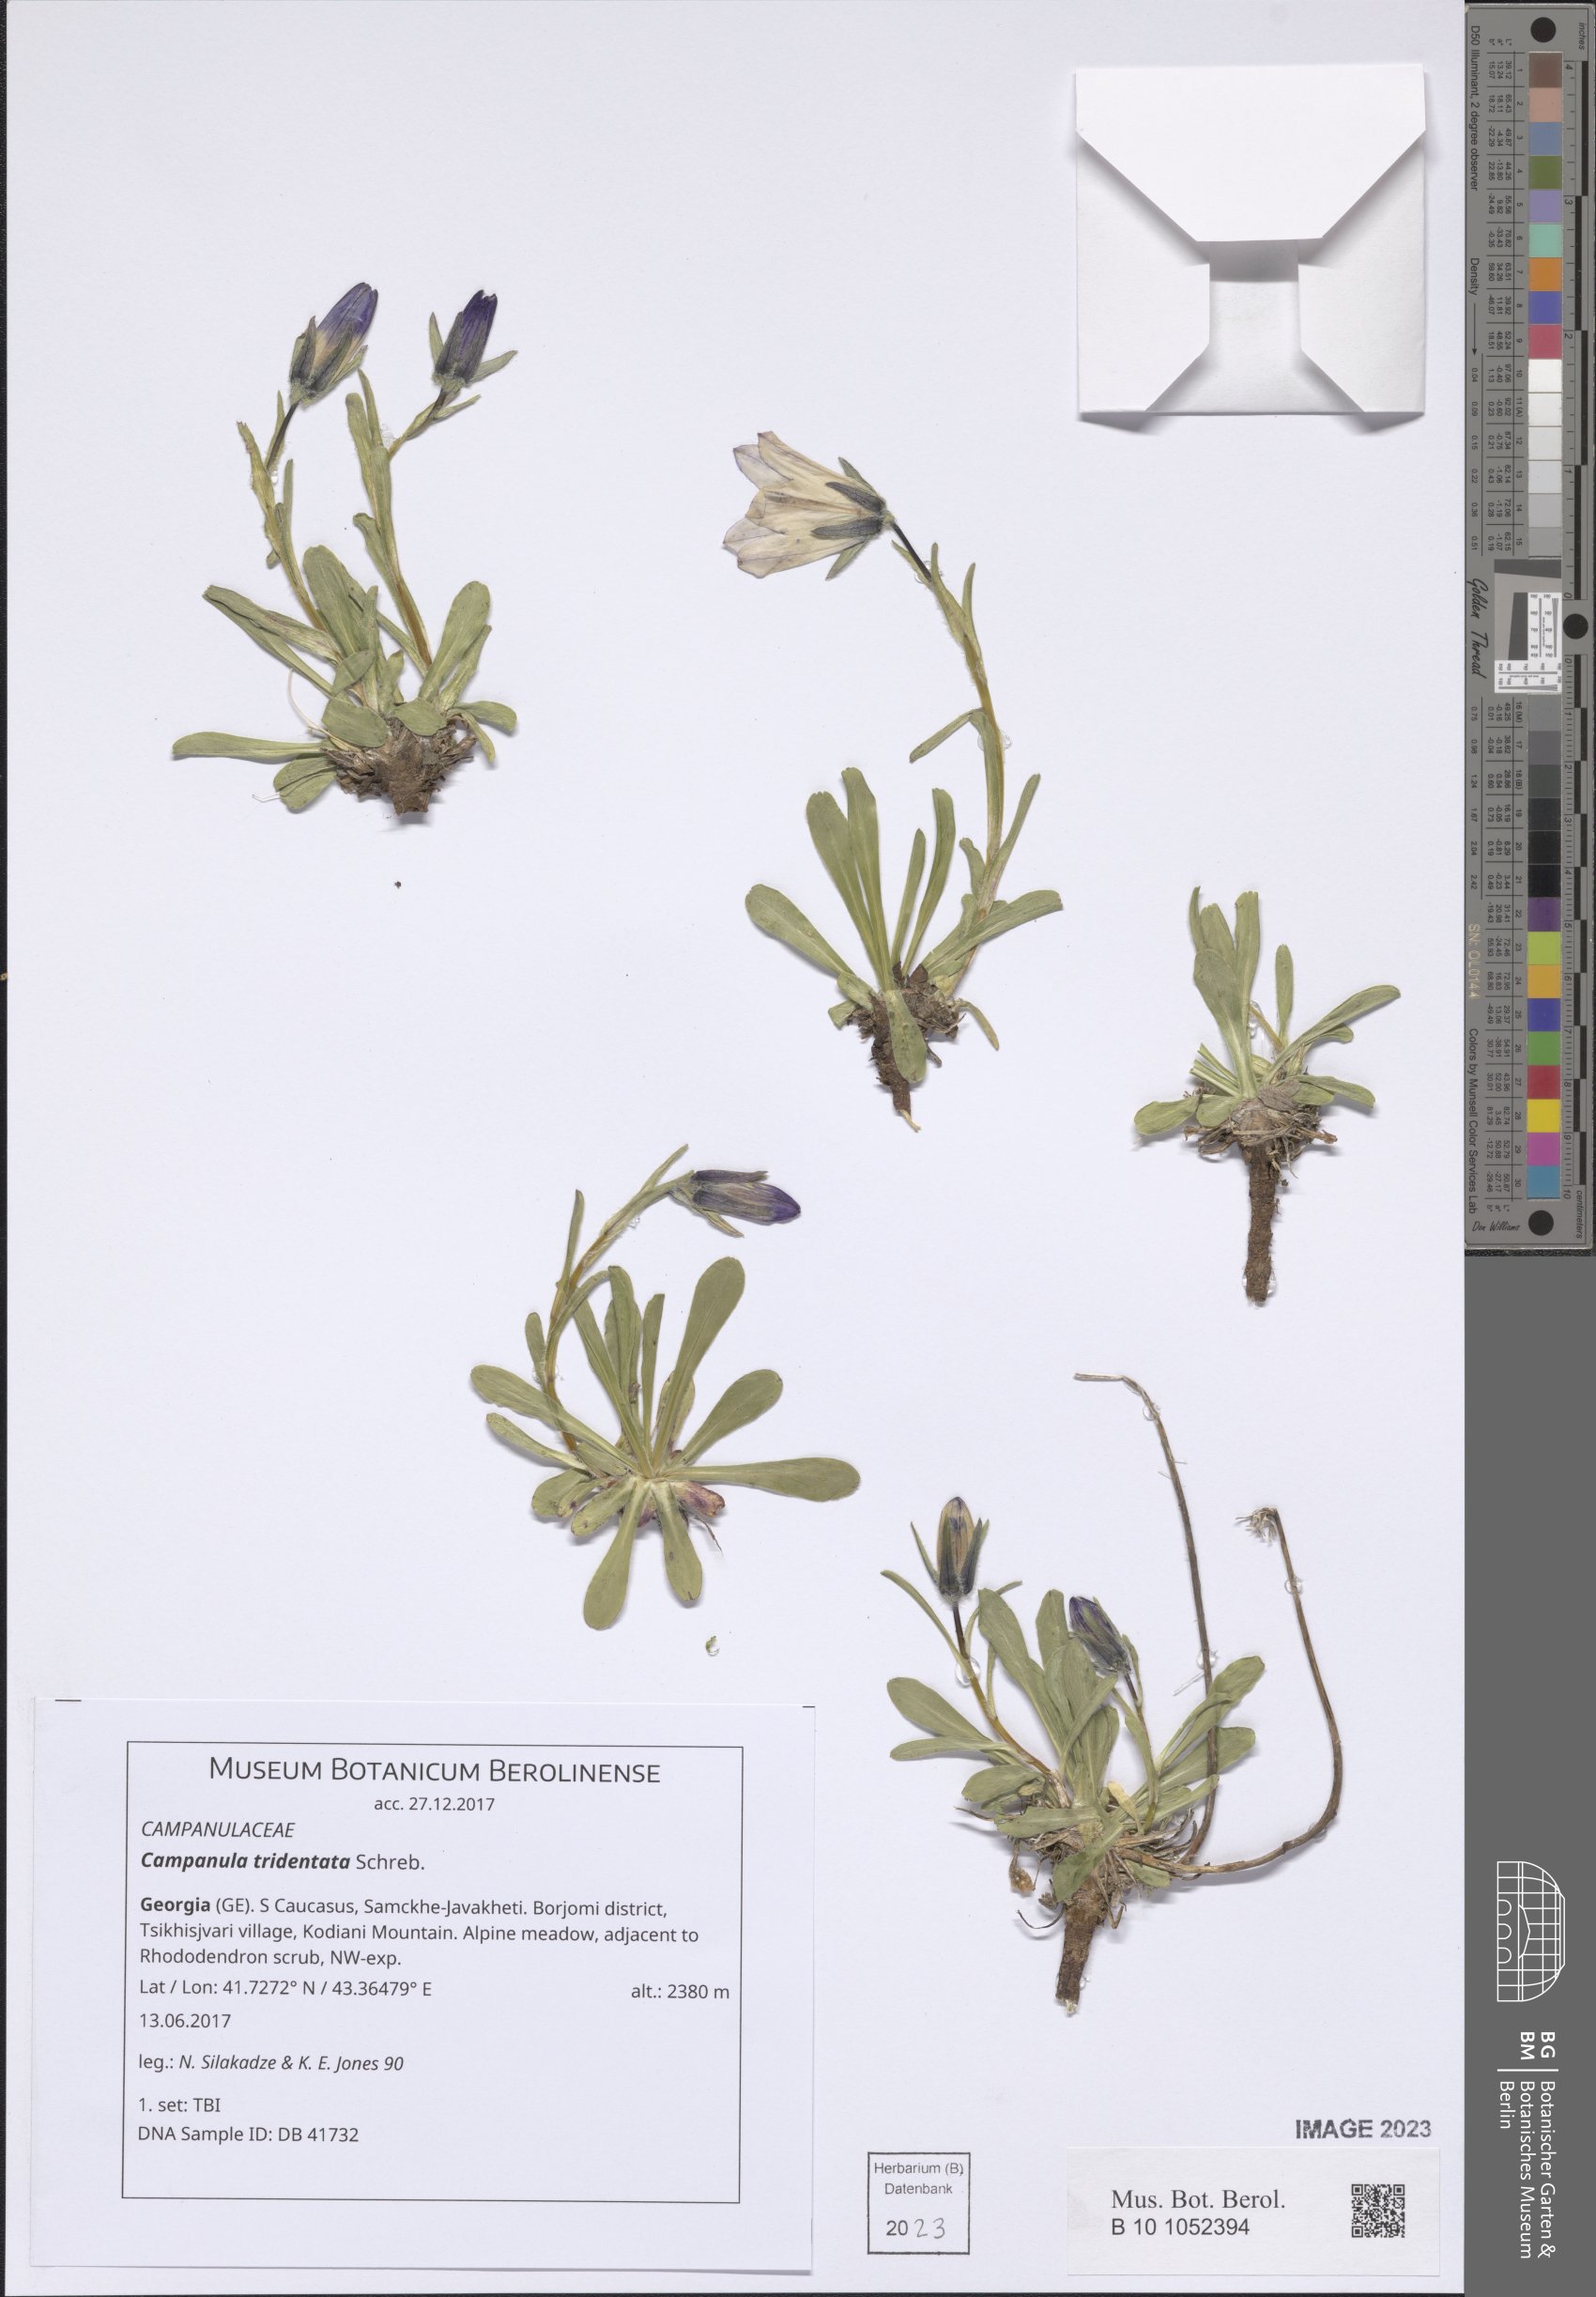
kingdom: Plantae
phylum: Tracheophyta
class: Magnoliopsida
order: Asterales
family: Campanulaceae
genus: Campanula
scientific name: Campanula tridentata
